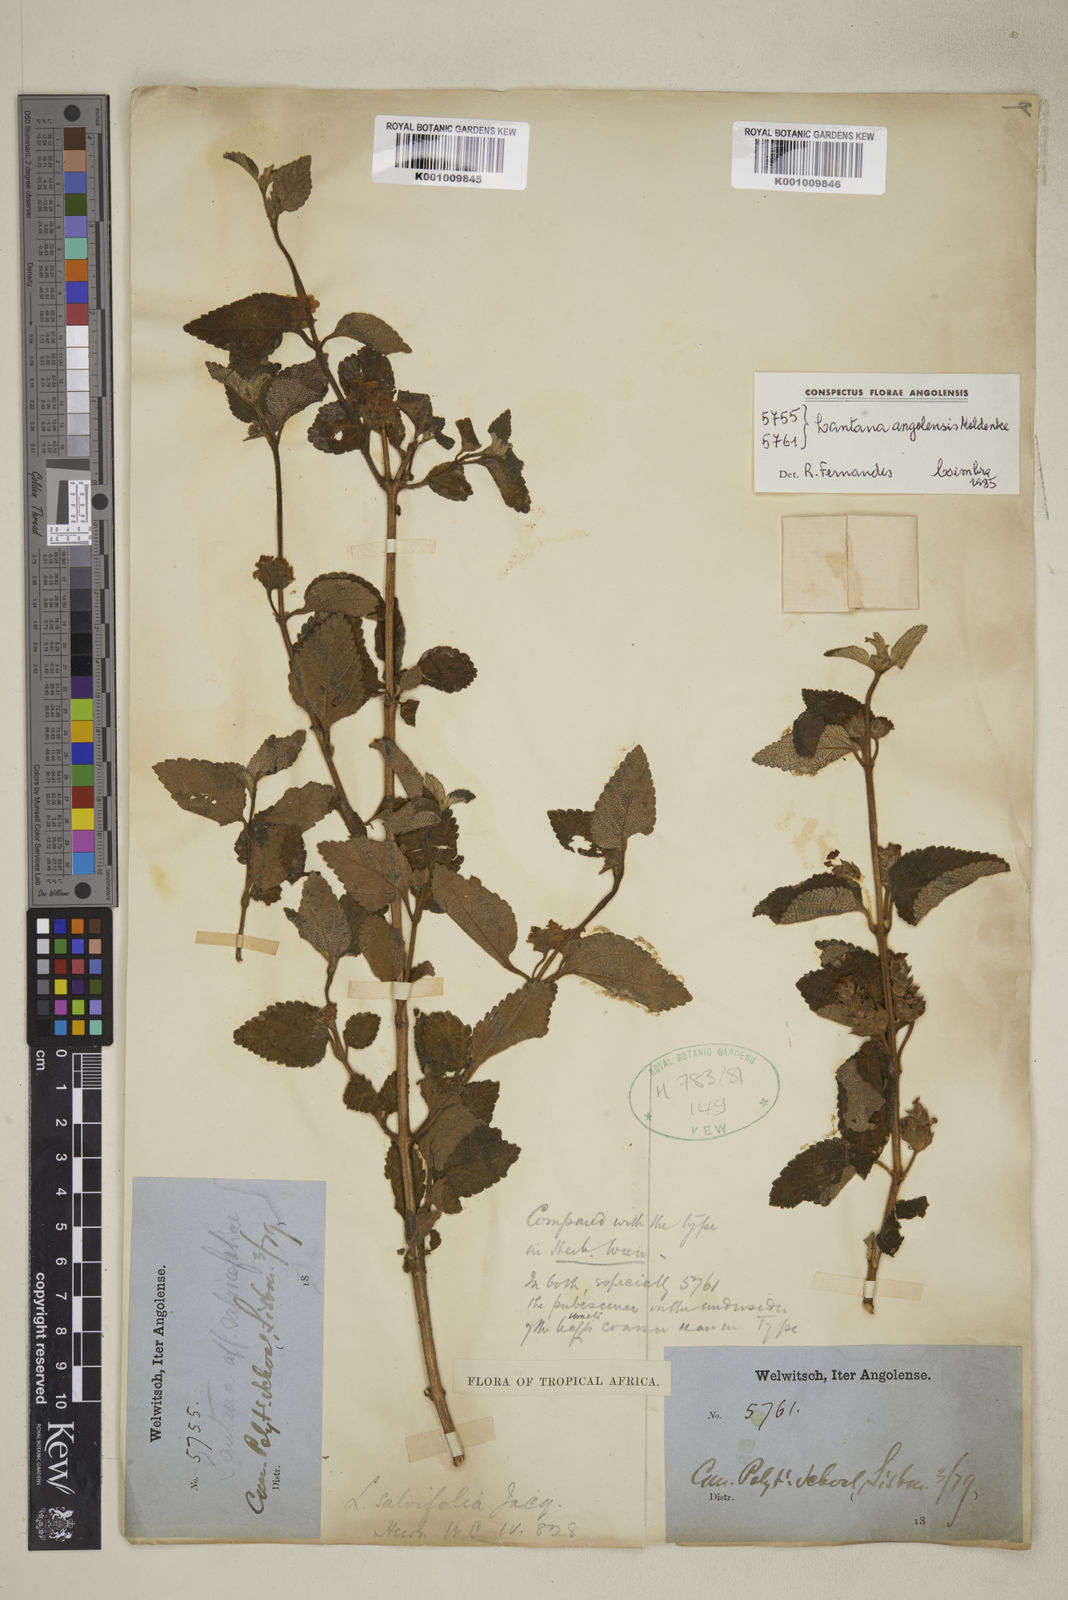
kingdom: Plantae
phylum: Tracheophyta
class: Magnoliopsida
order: Lamiales
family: Verbenaceae
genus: Lantana
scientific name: Lantana angolensis
